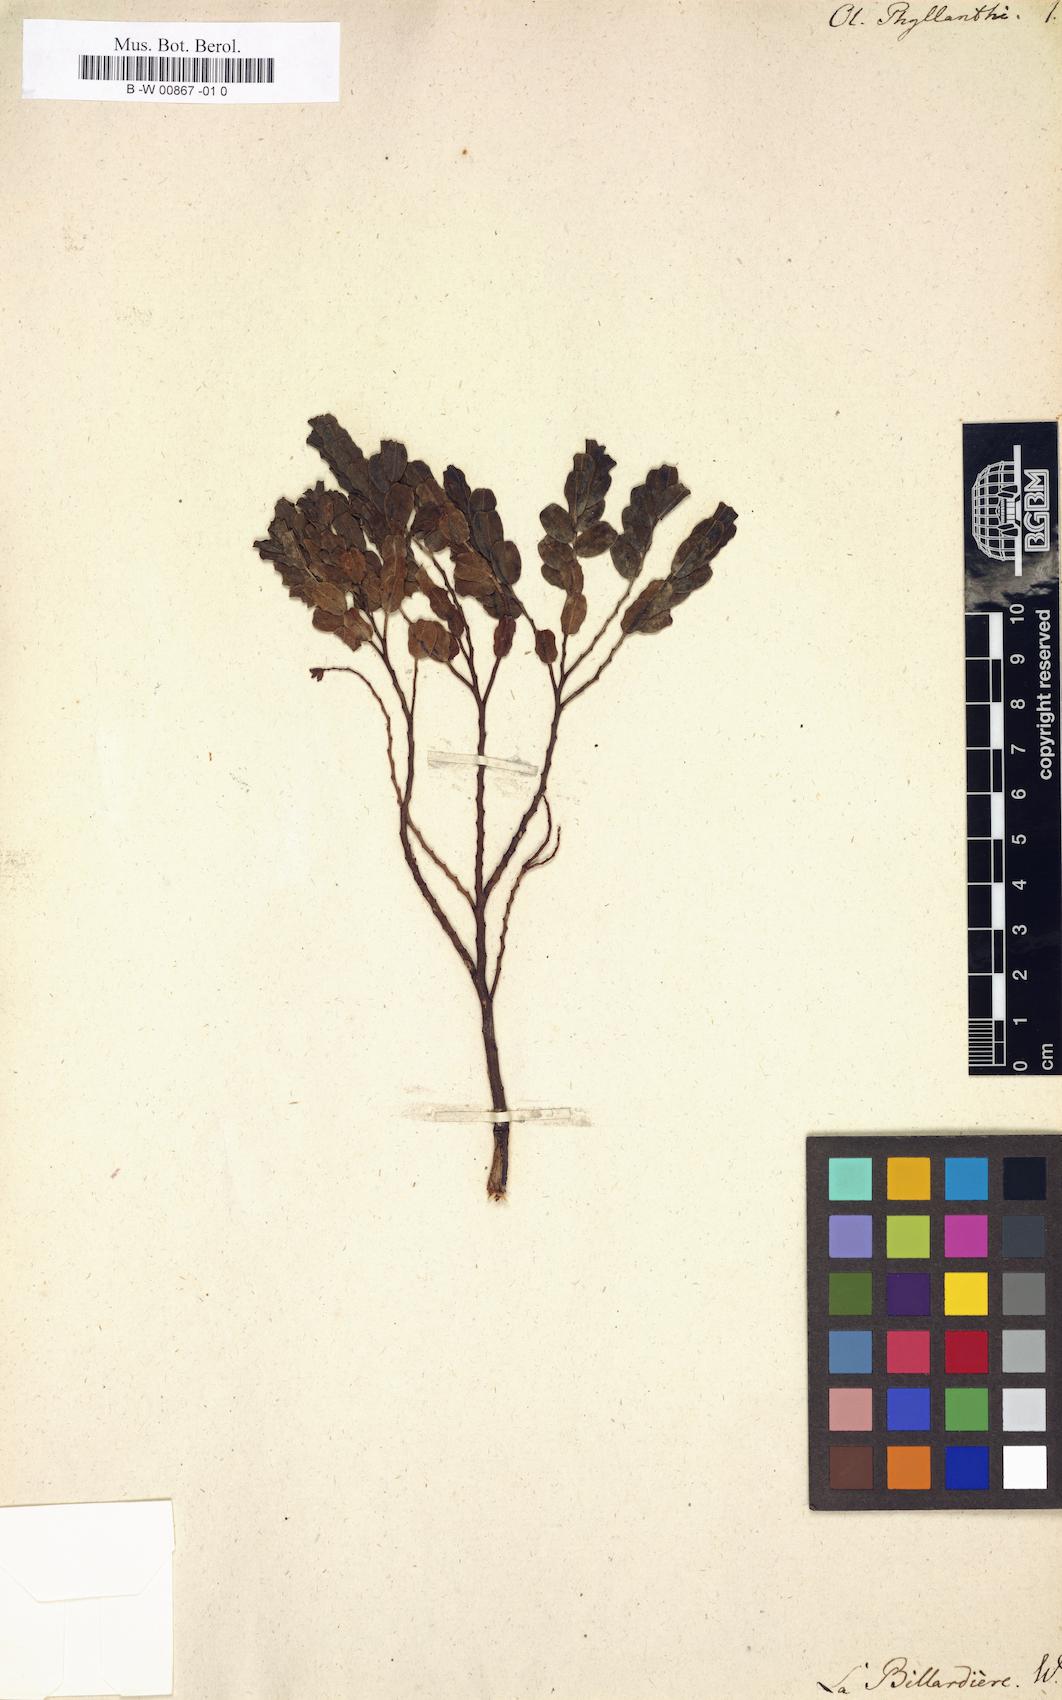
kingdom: Plantae
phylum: Tracheophyta
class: Magnoliopsida
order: Santalales
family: Olacaceae
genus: Olax
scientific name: Olax phyllanthi
